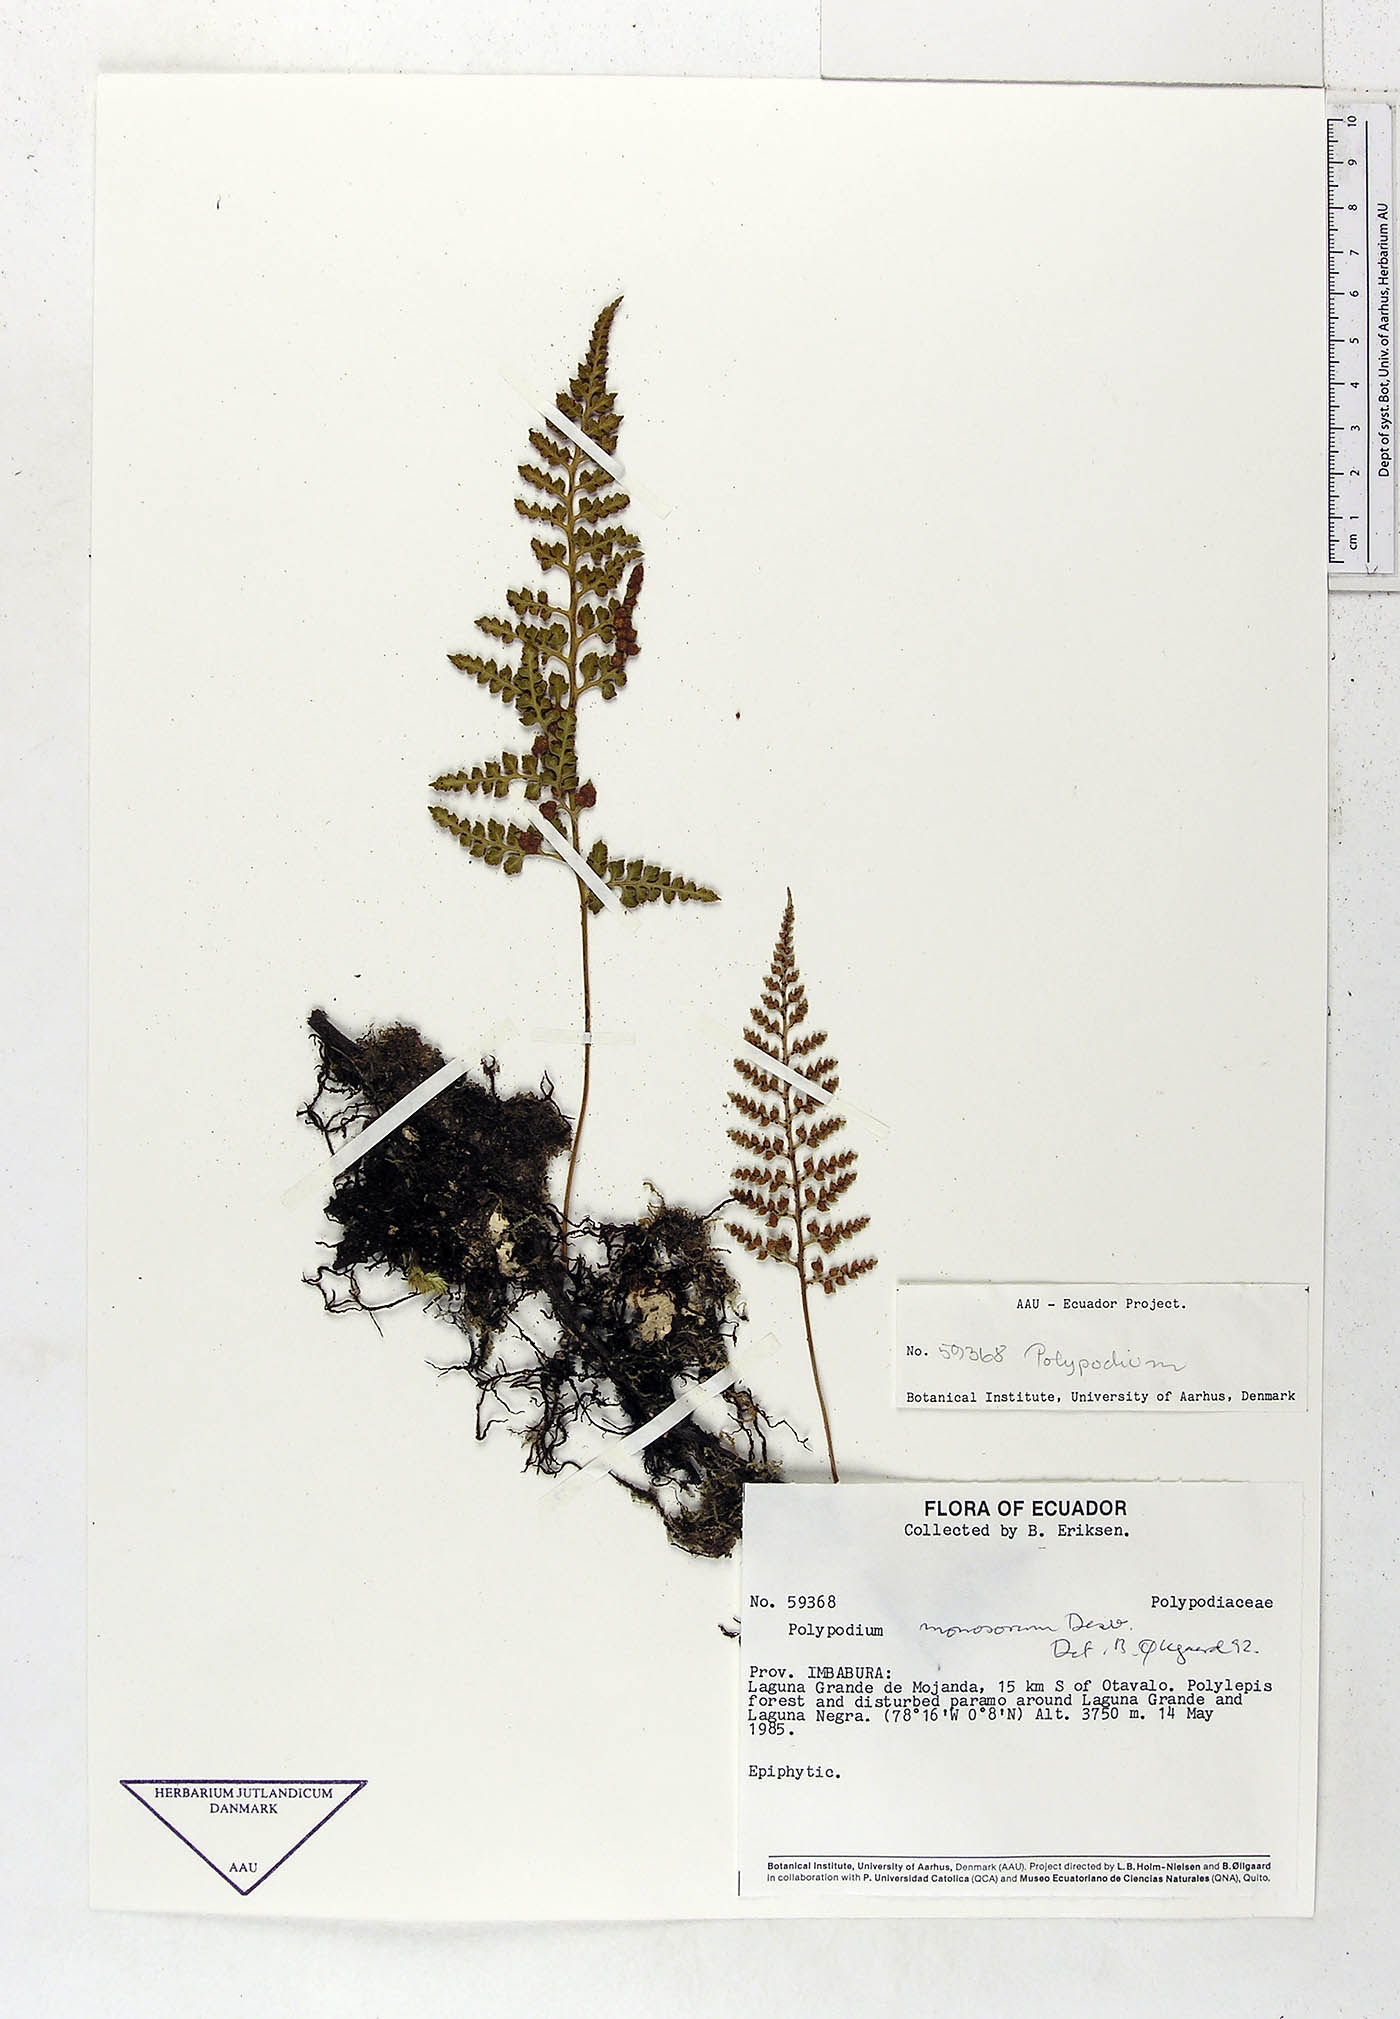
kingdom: Plantae
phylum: Tracheophyta
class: Polypodiopsida
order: Polypodiales
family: Polypodiaceae
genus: Pleopeltis
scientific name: Pleopeltis monosora
